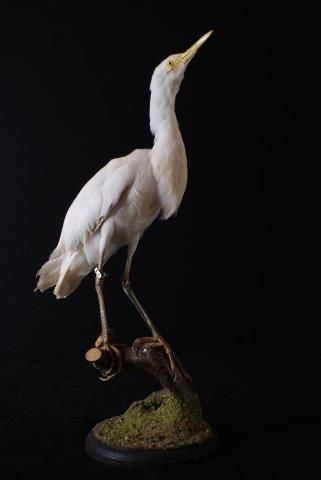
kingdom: Animalia
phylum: Chordata
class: Aves
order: Pelecaniformes
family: Ardeidae
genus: Bubulcus
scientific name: Bubulcus ibis
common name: Cattle egret
